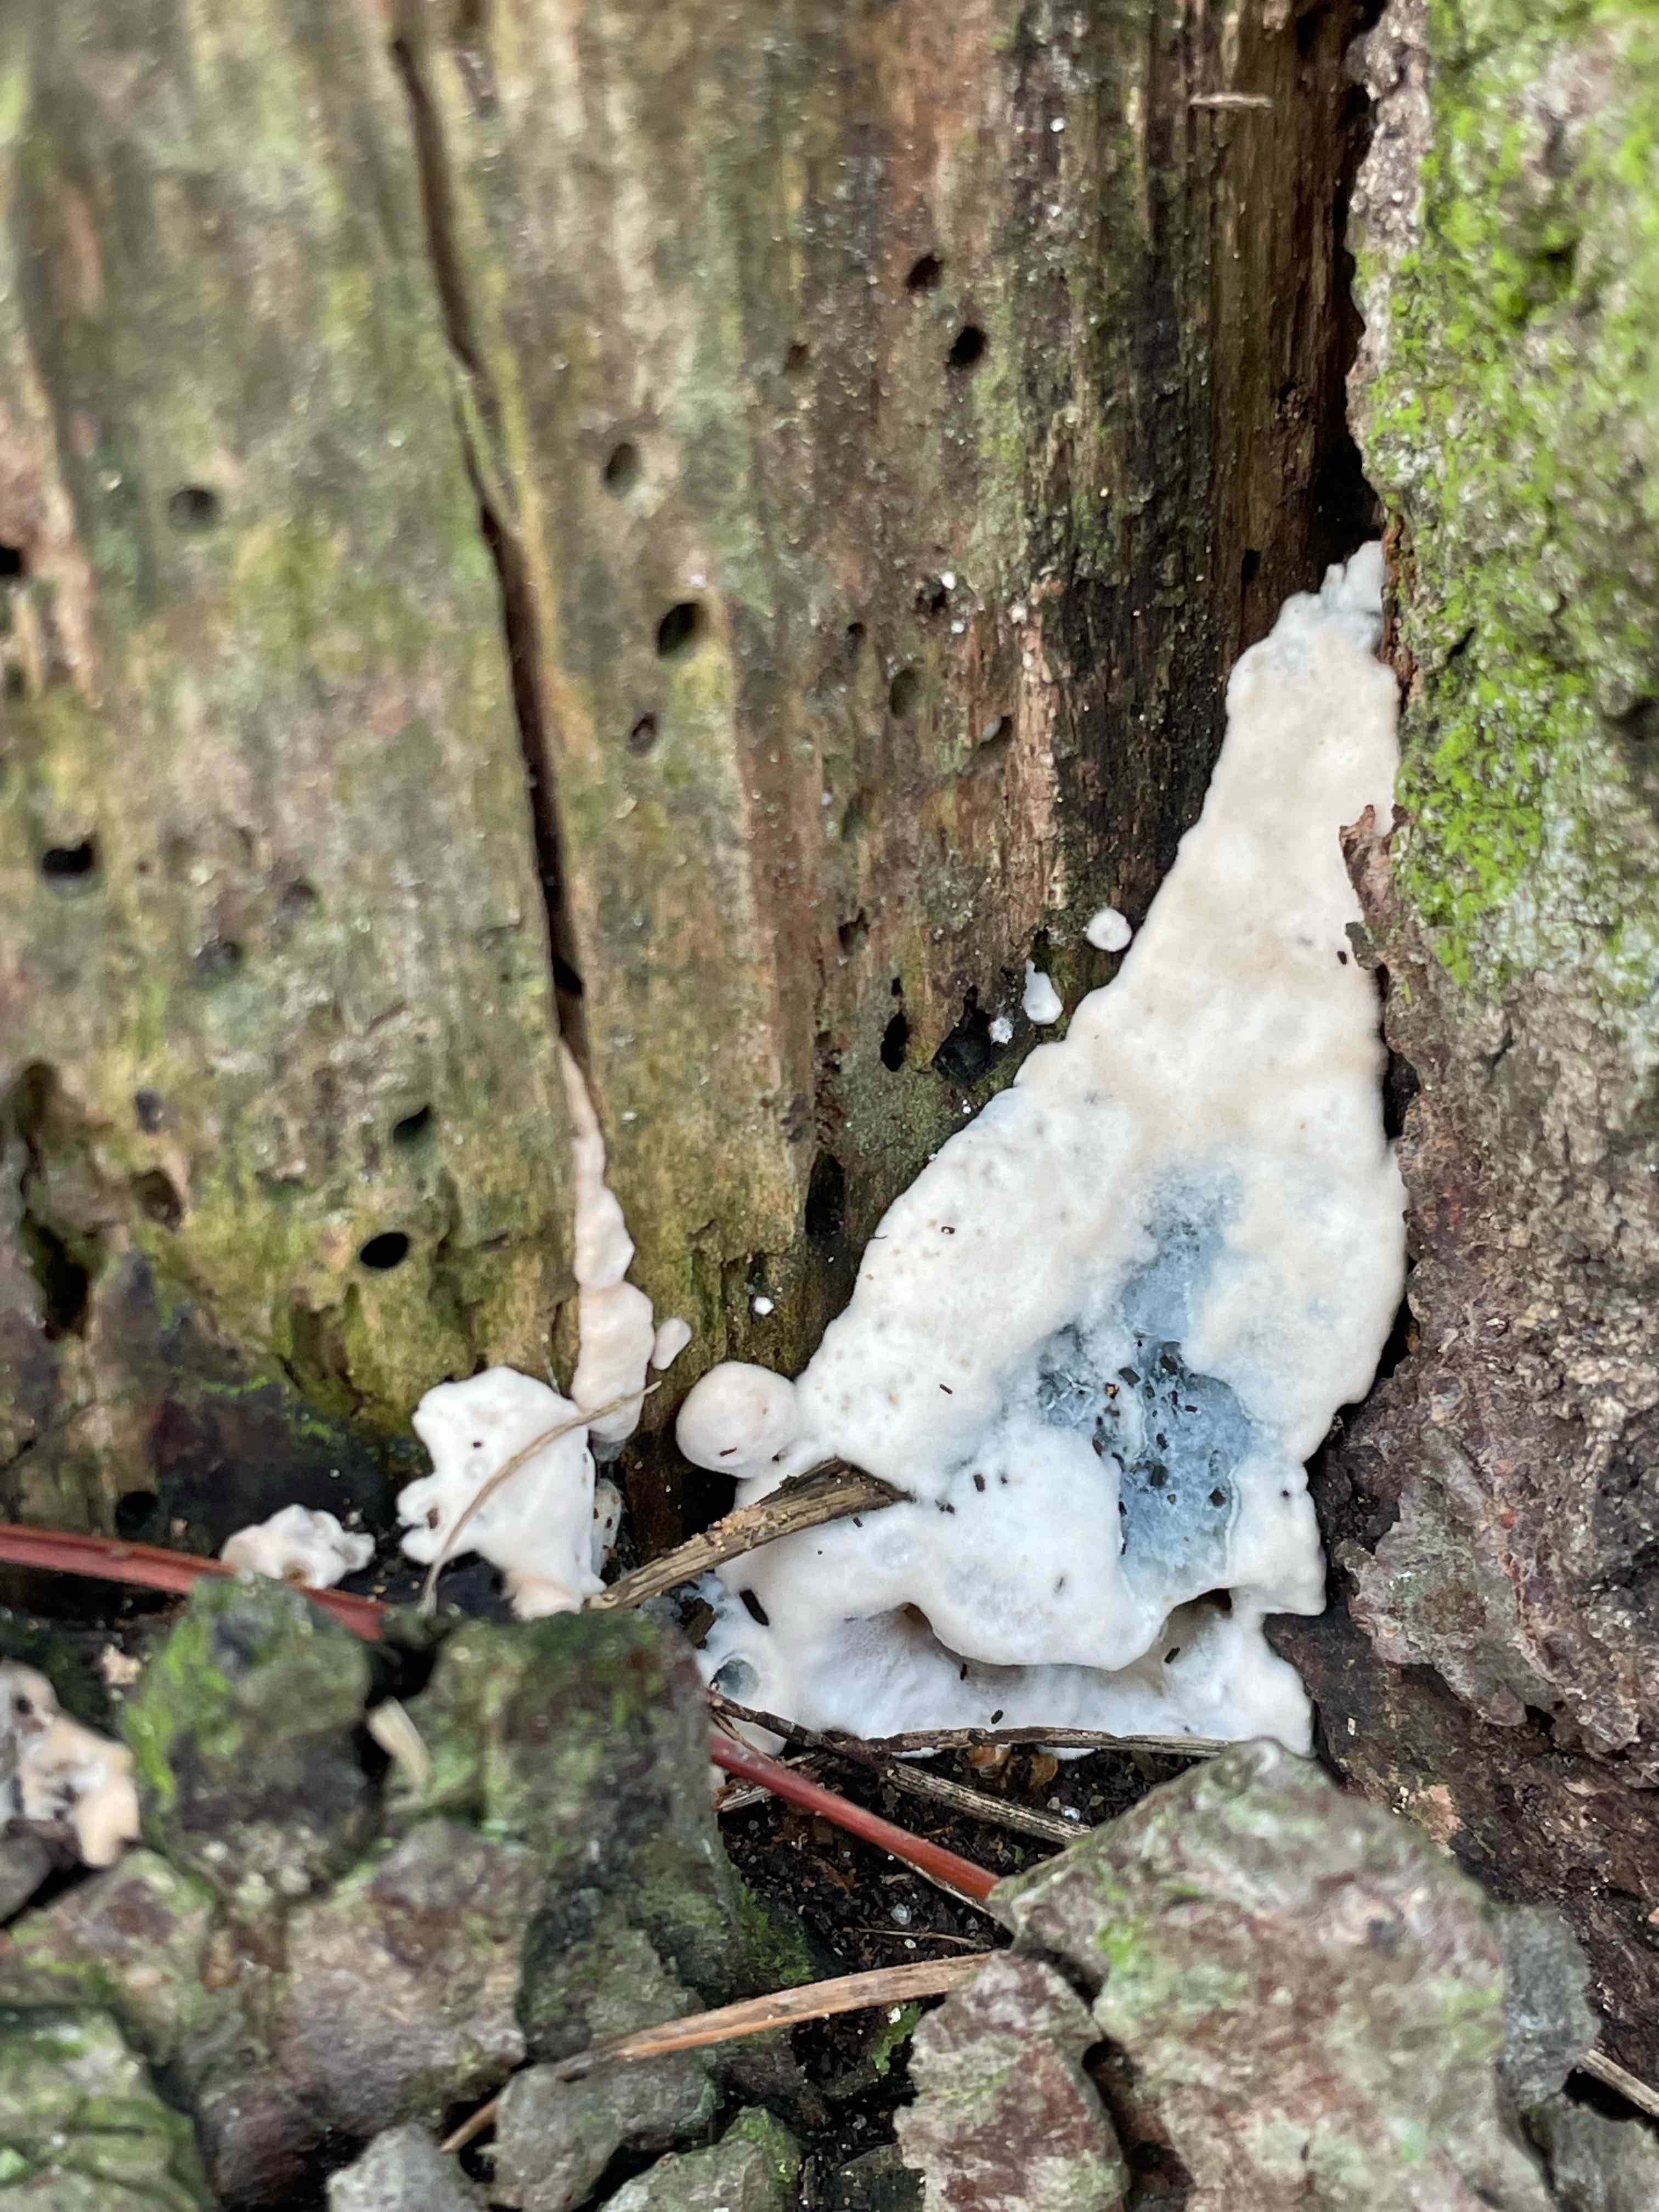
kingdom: Fungi
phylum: Basidiomycota
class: Agaricomycetes
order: Polyporales
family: Polyporaceae
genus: Cyanosporus
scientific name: Cyanosporus caesius
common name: blålig kødporesvamp
